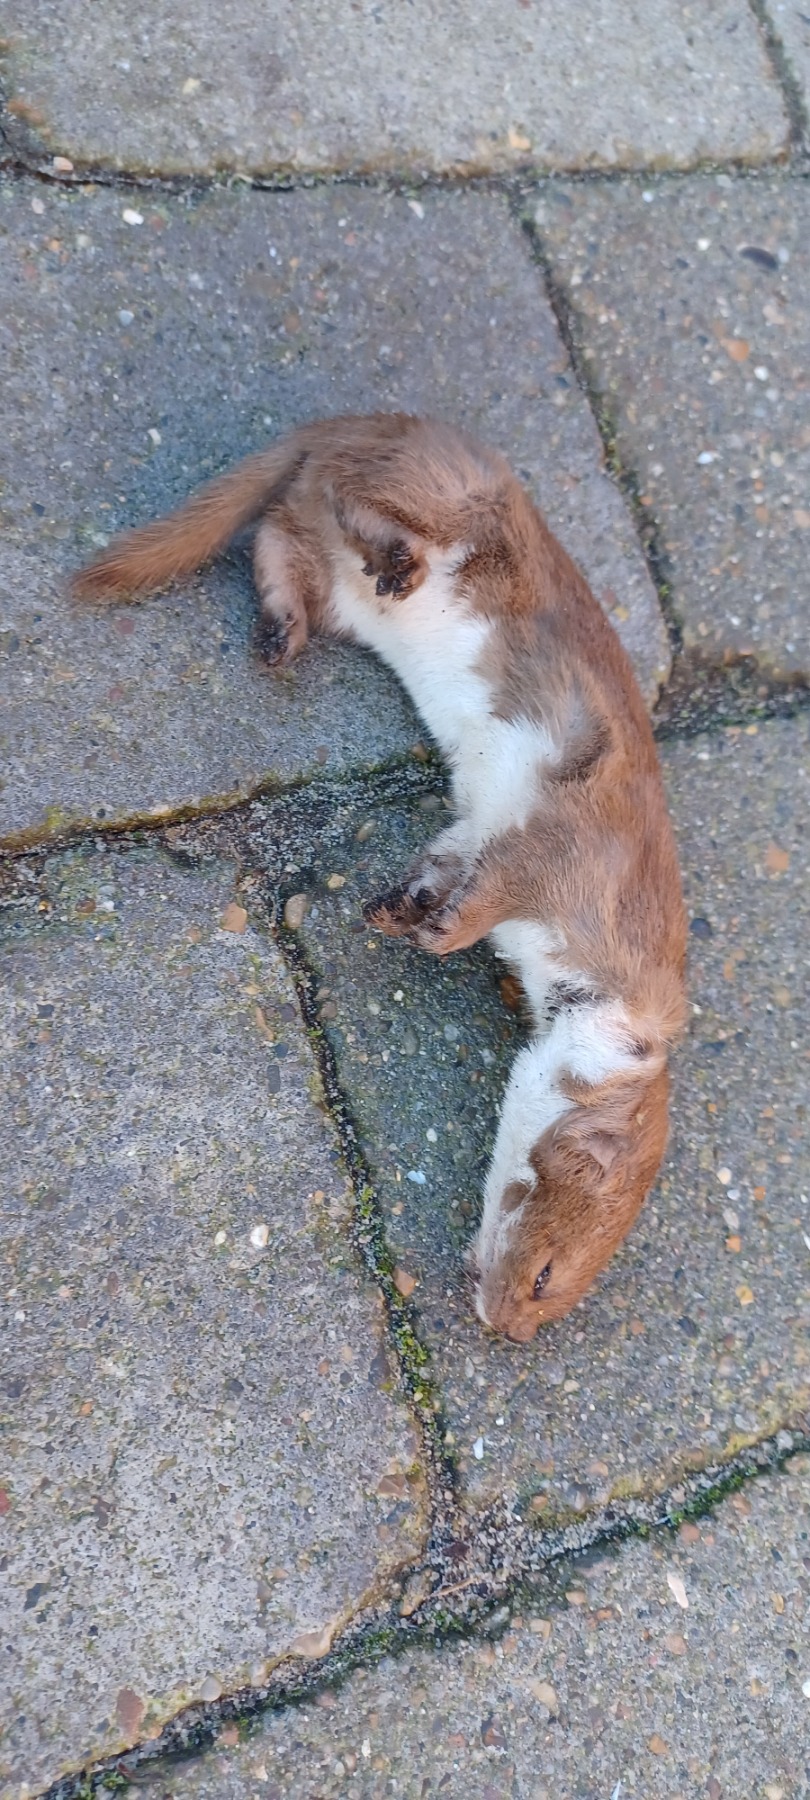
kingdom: Animalia
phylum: Chordata
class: Mammalia
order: Carnivora
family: Mustelidae
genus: Mustela
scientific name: Mustela nivalis
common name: Brud
